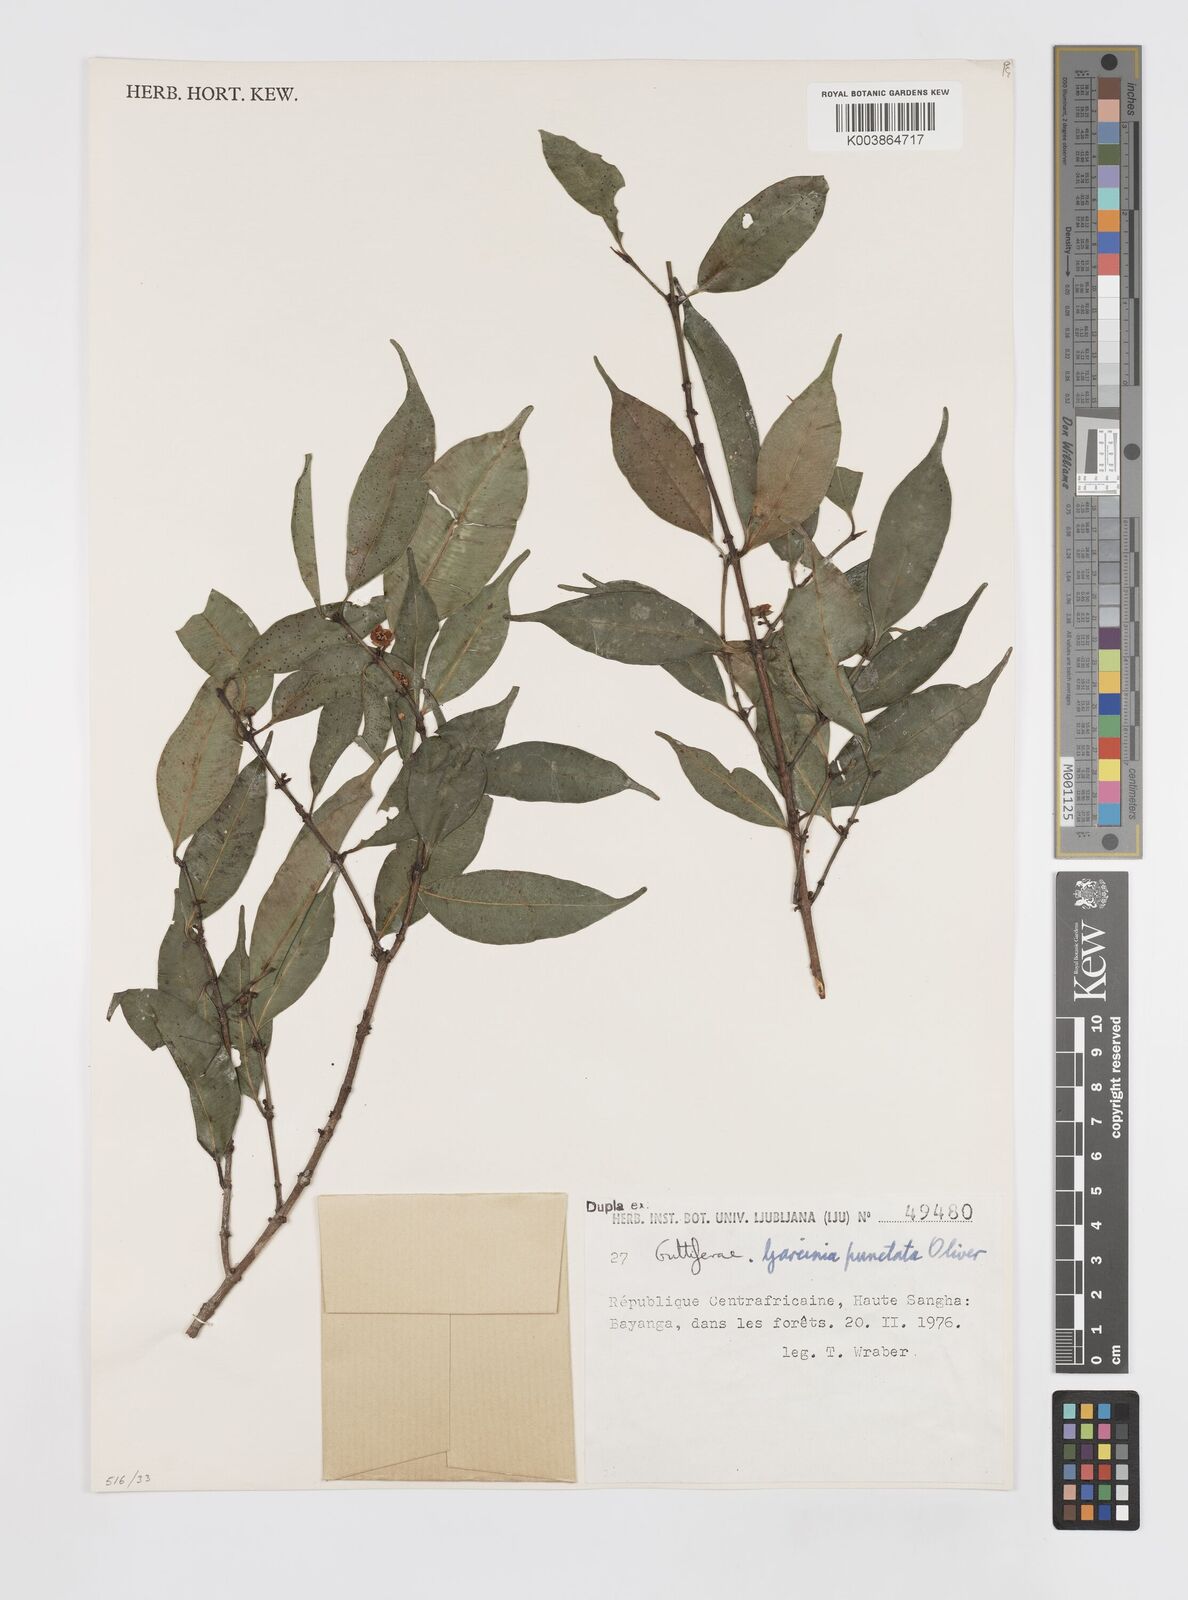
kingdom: Plantae
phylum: Tracheophyta
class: Magnoliopsida
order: Malpighiales
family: Clusiaceae
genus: Garcinia
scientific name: Garcinia punctata
